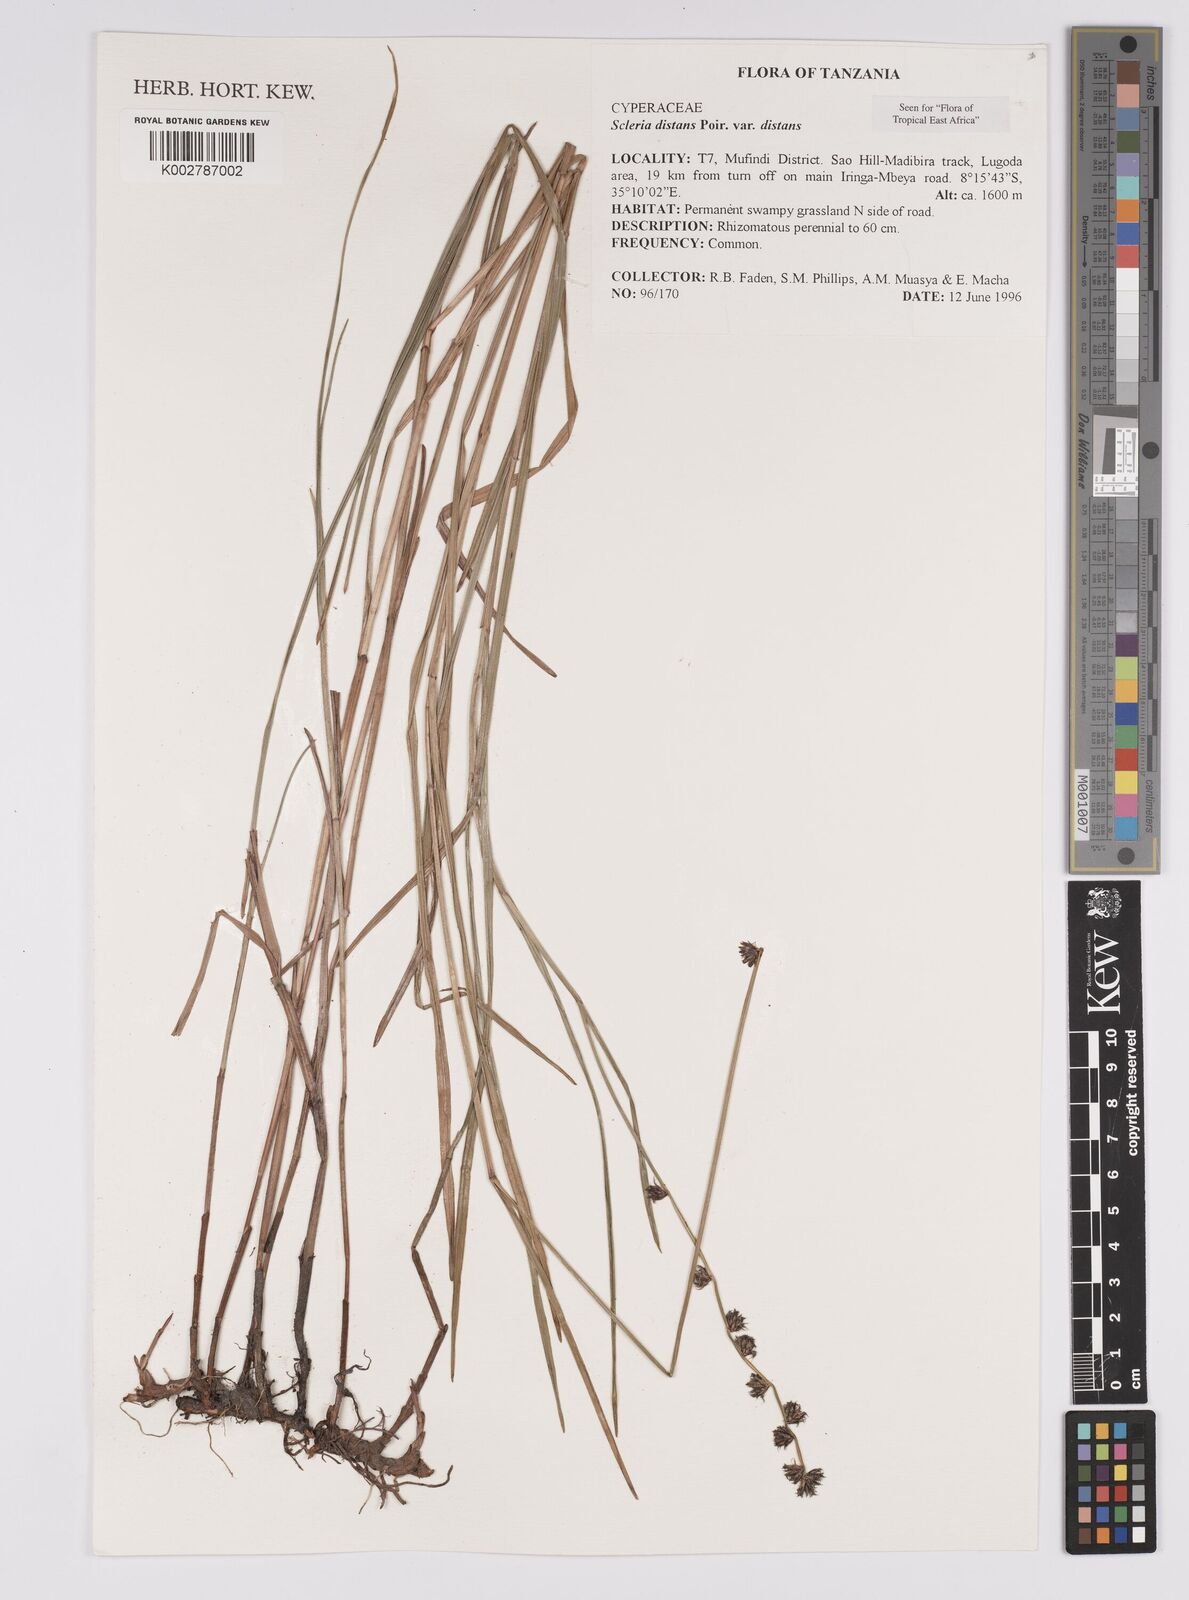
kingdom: Plantae
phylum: Tracheophyta
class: Liliopsida
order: Poales
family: Cyperaceae
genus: Scleria
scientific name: Scleria distans
